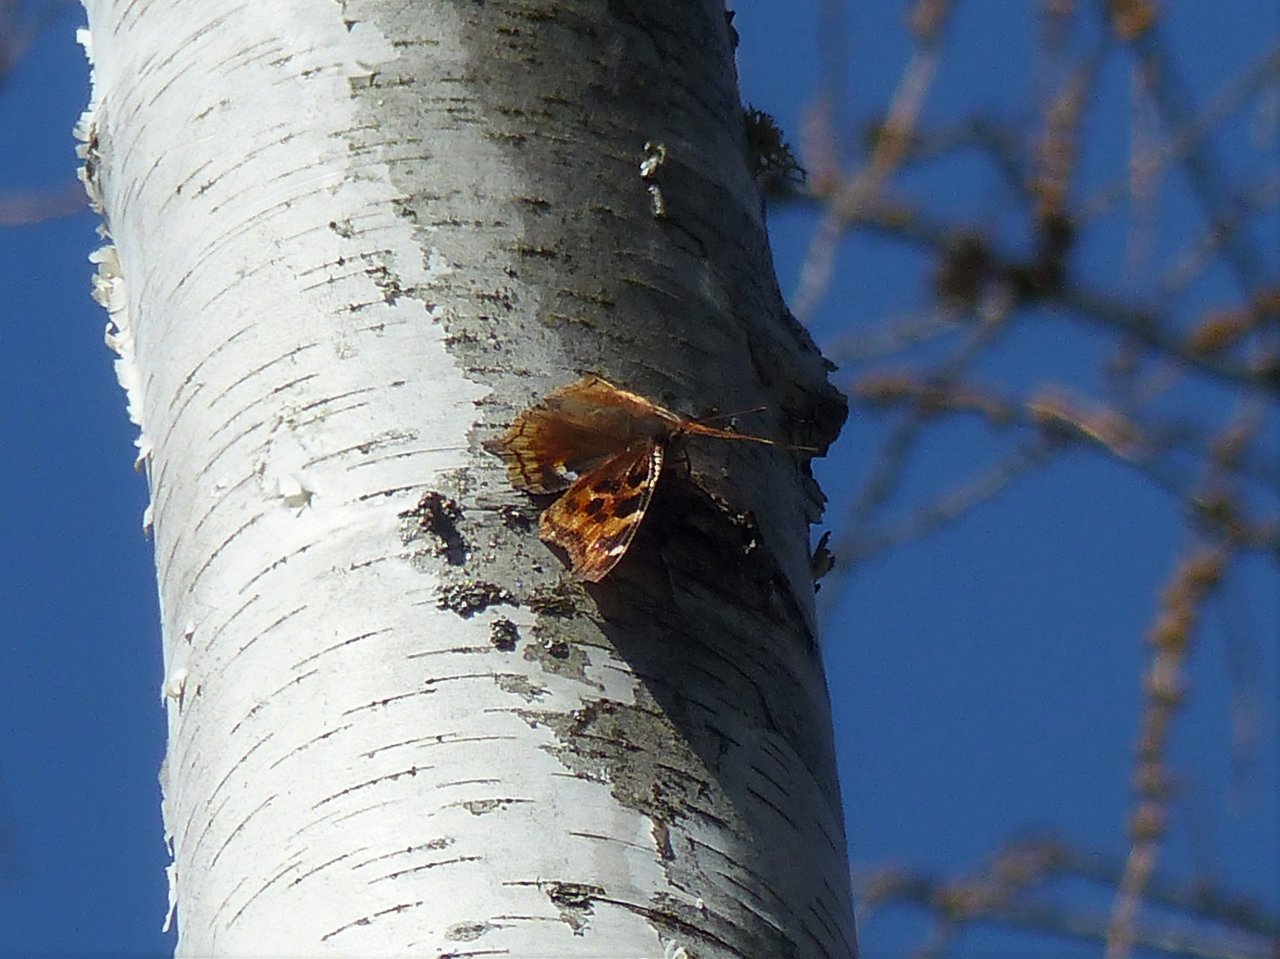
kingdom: Animalia
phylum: Arthropoda
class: Insecta
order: Lepidoptera
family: Nymphalidae
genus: Polygonia
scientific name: Polygonia vaualbum
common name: Compton Tortoiseshell
